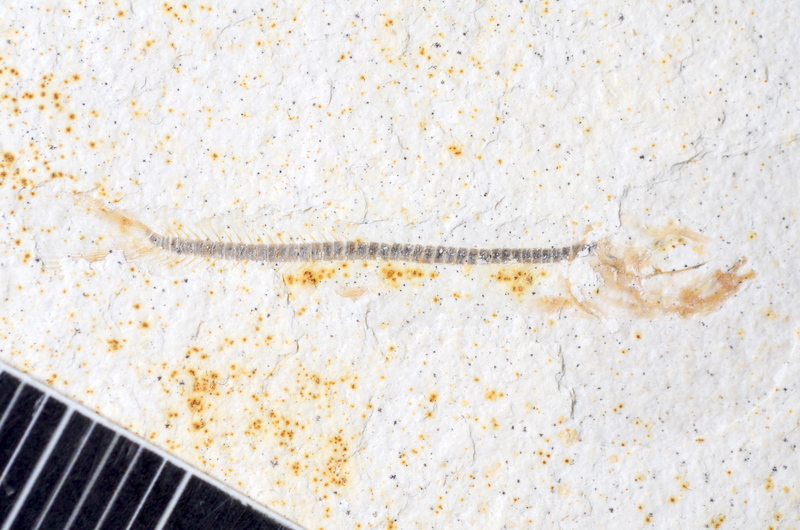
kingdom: Animalia
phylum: Chordata
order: Salmoniformes
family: Orthogonikleithridae
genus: Orthogonikleithrus
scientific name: Orthogonikleithrus hoelli
